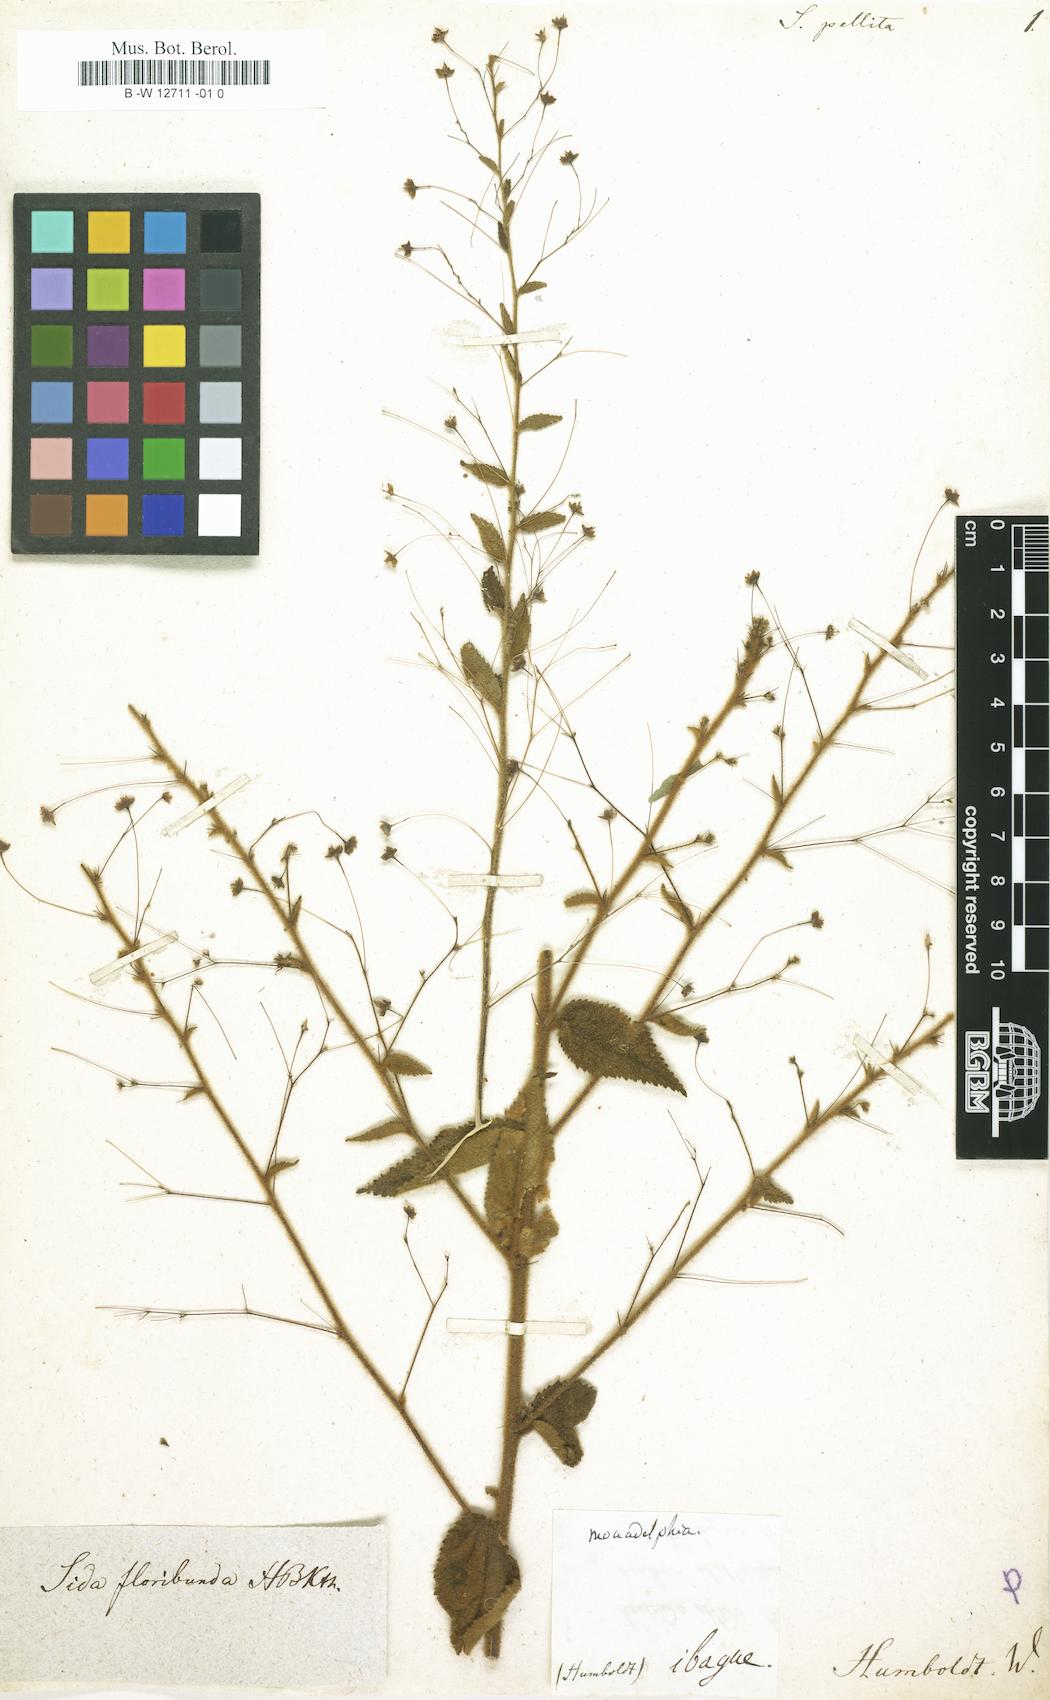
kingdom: Plantae
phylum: Tracheophyta
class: Magnoliopsida
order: Malvales
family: Malvaceae
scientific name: Malvaceae
